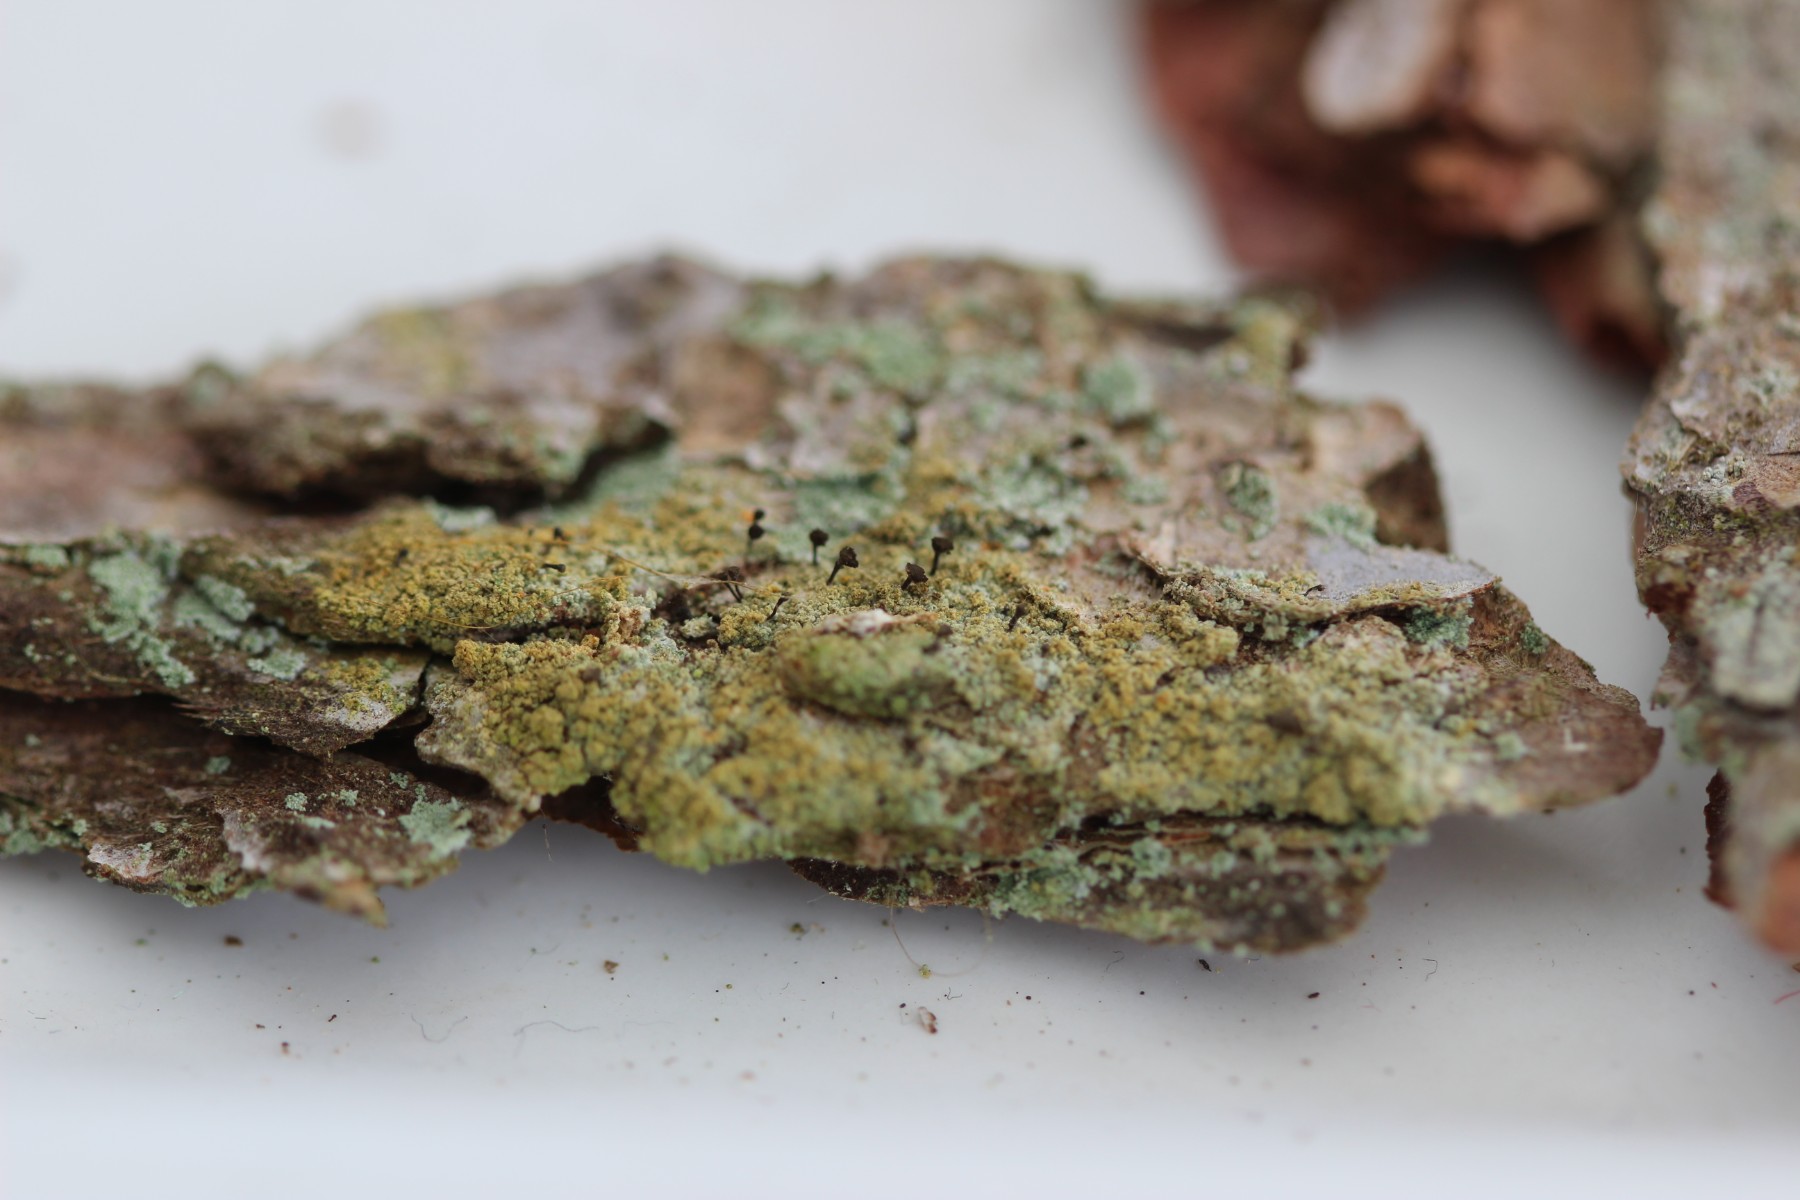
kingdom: Fungi
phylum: Ascomycota
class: Coniocybomycetes
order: Coniocybales
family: Coniocybaceae
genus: Chaenotheca
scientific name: Chaenotheca ferruginea
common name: rustbrun knappenålslav
